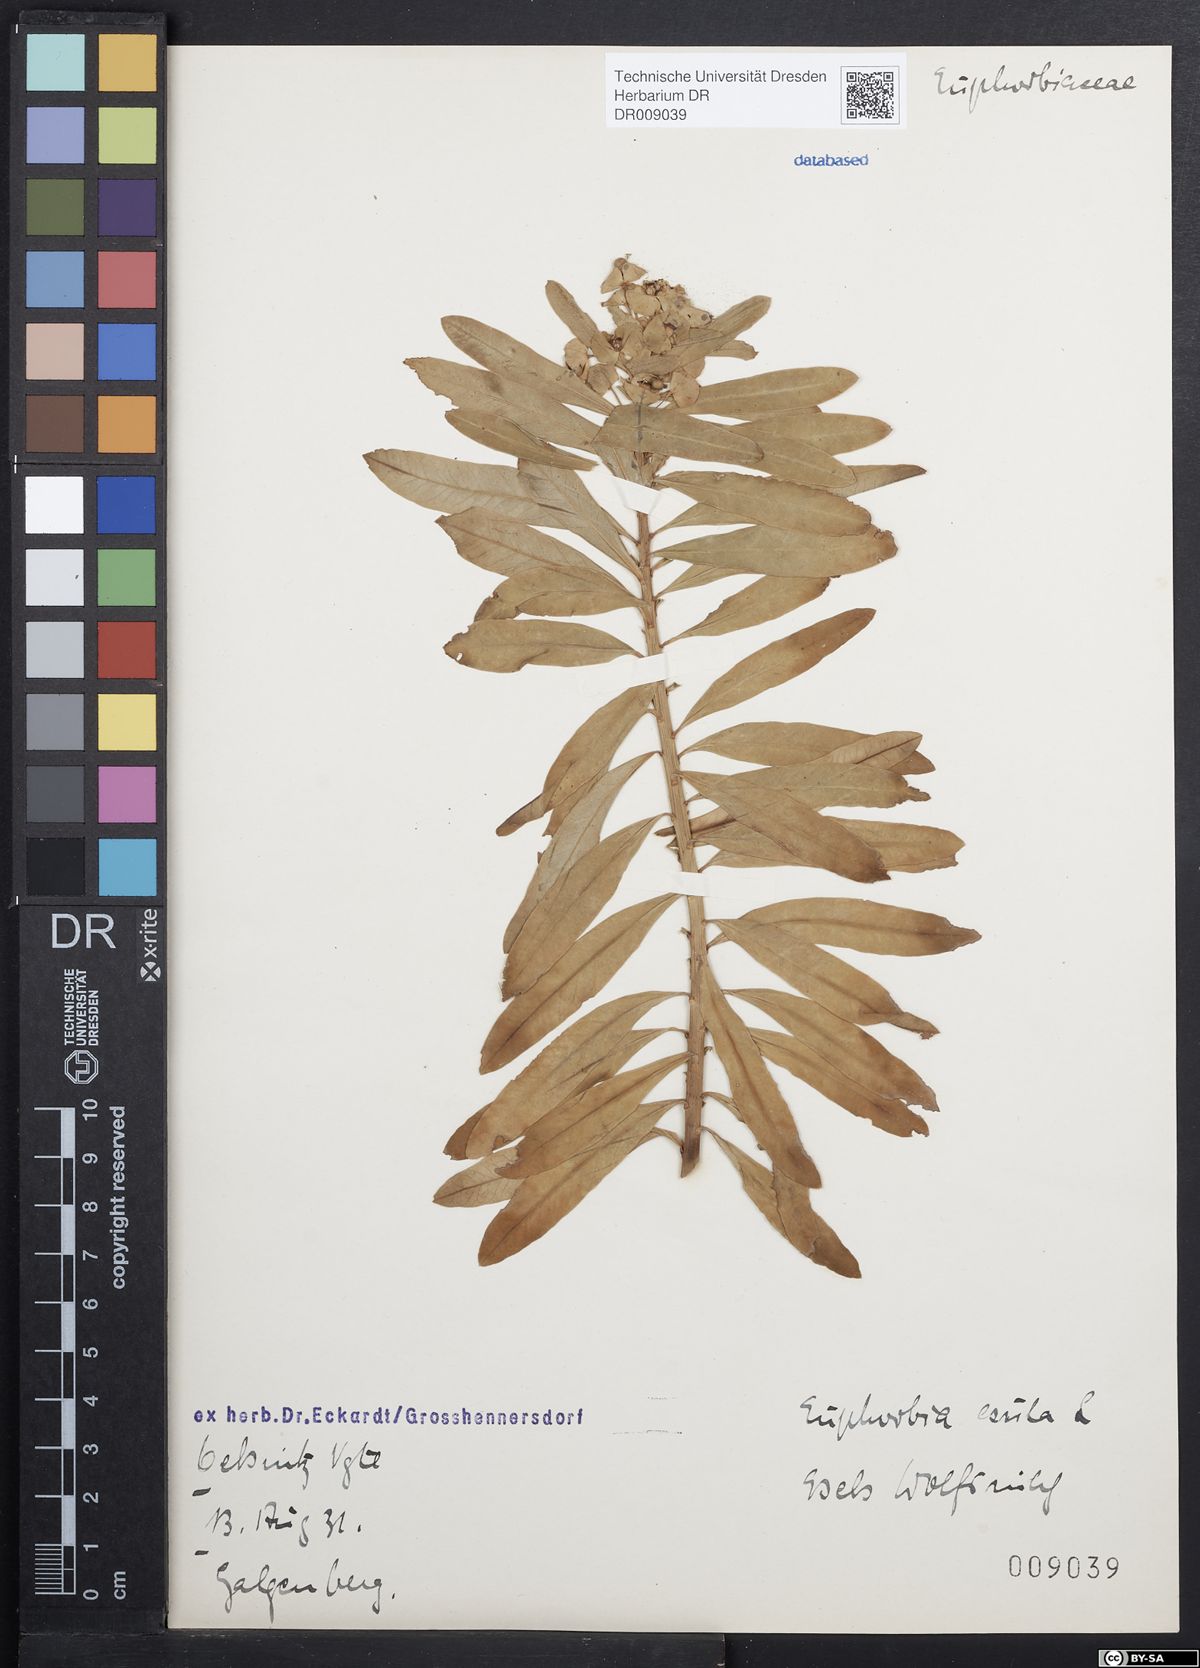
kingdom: Plantae
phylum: Tracheophyta
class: Magnoliopsida
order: Malpighiales
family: Euphorbiaceae
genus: Euphorbia
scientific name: Euphorbia esula
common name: Leafy spurge
